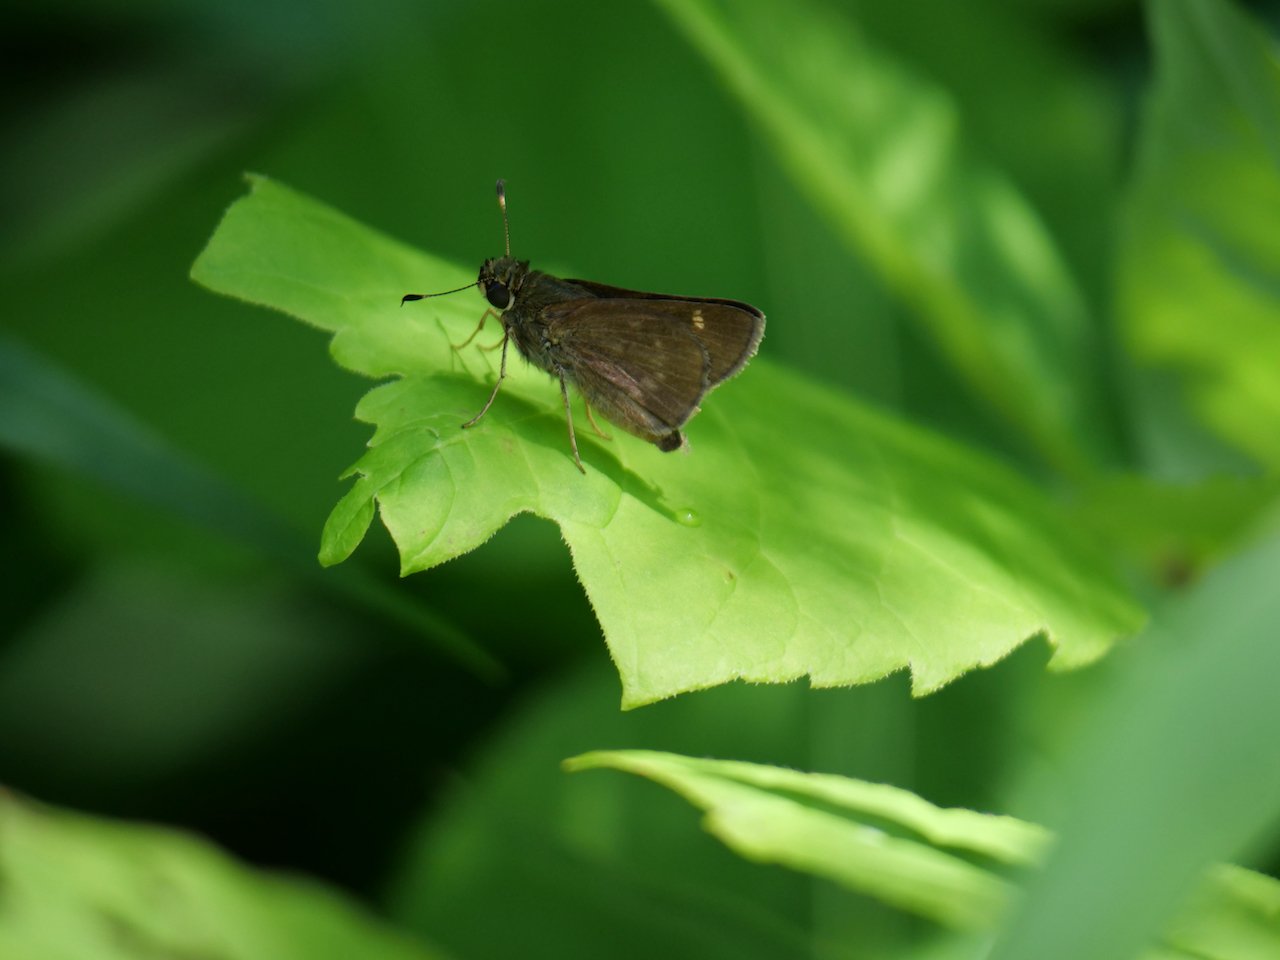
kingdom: Animalia
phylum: Arthropoda
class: Insecta
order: Lepidoptera
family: Hesperiidae
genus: Vernia
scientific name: Vernia verna
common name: Little Glassywing
